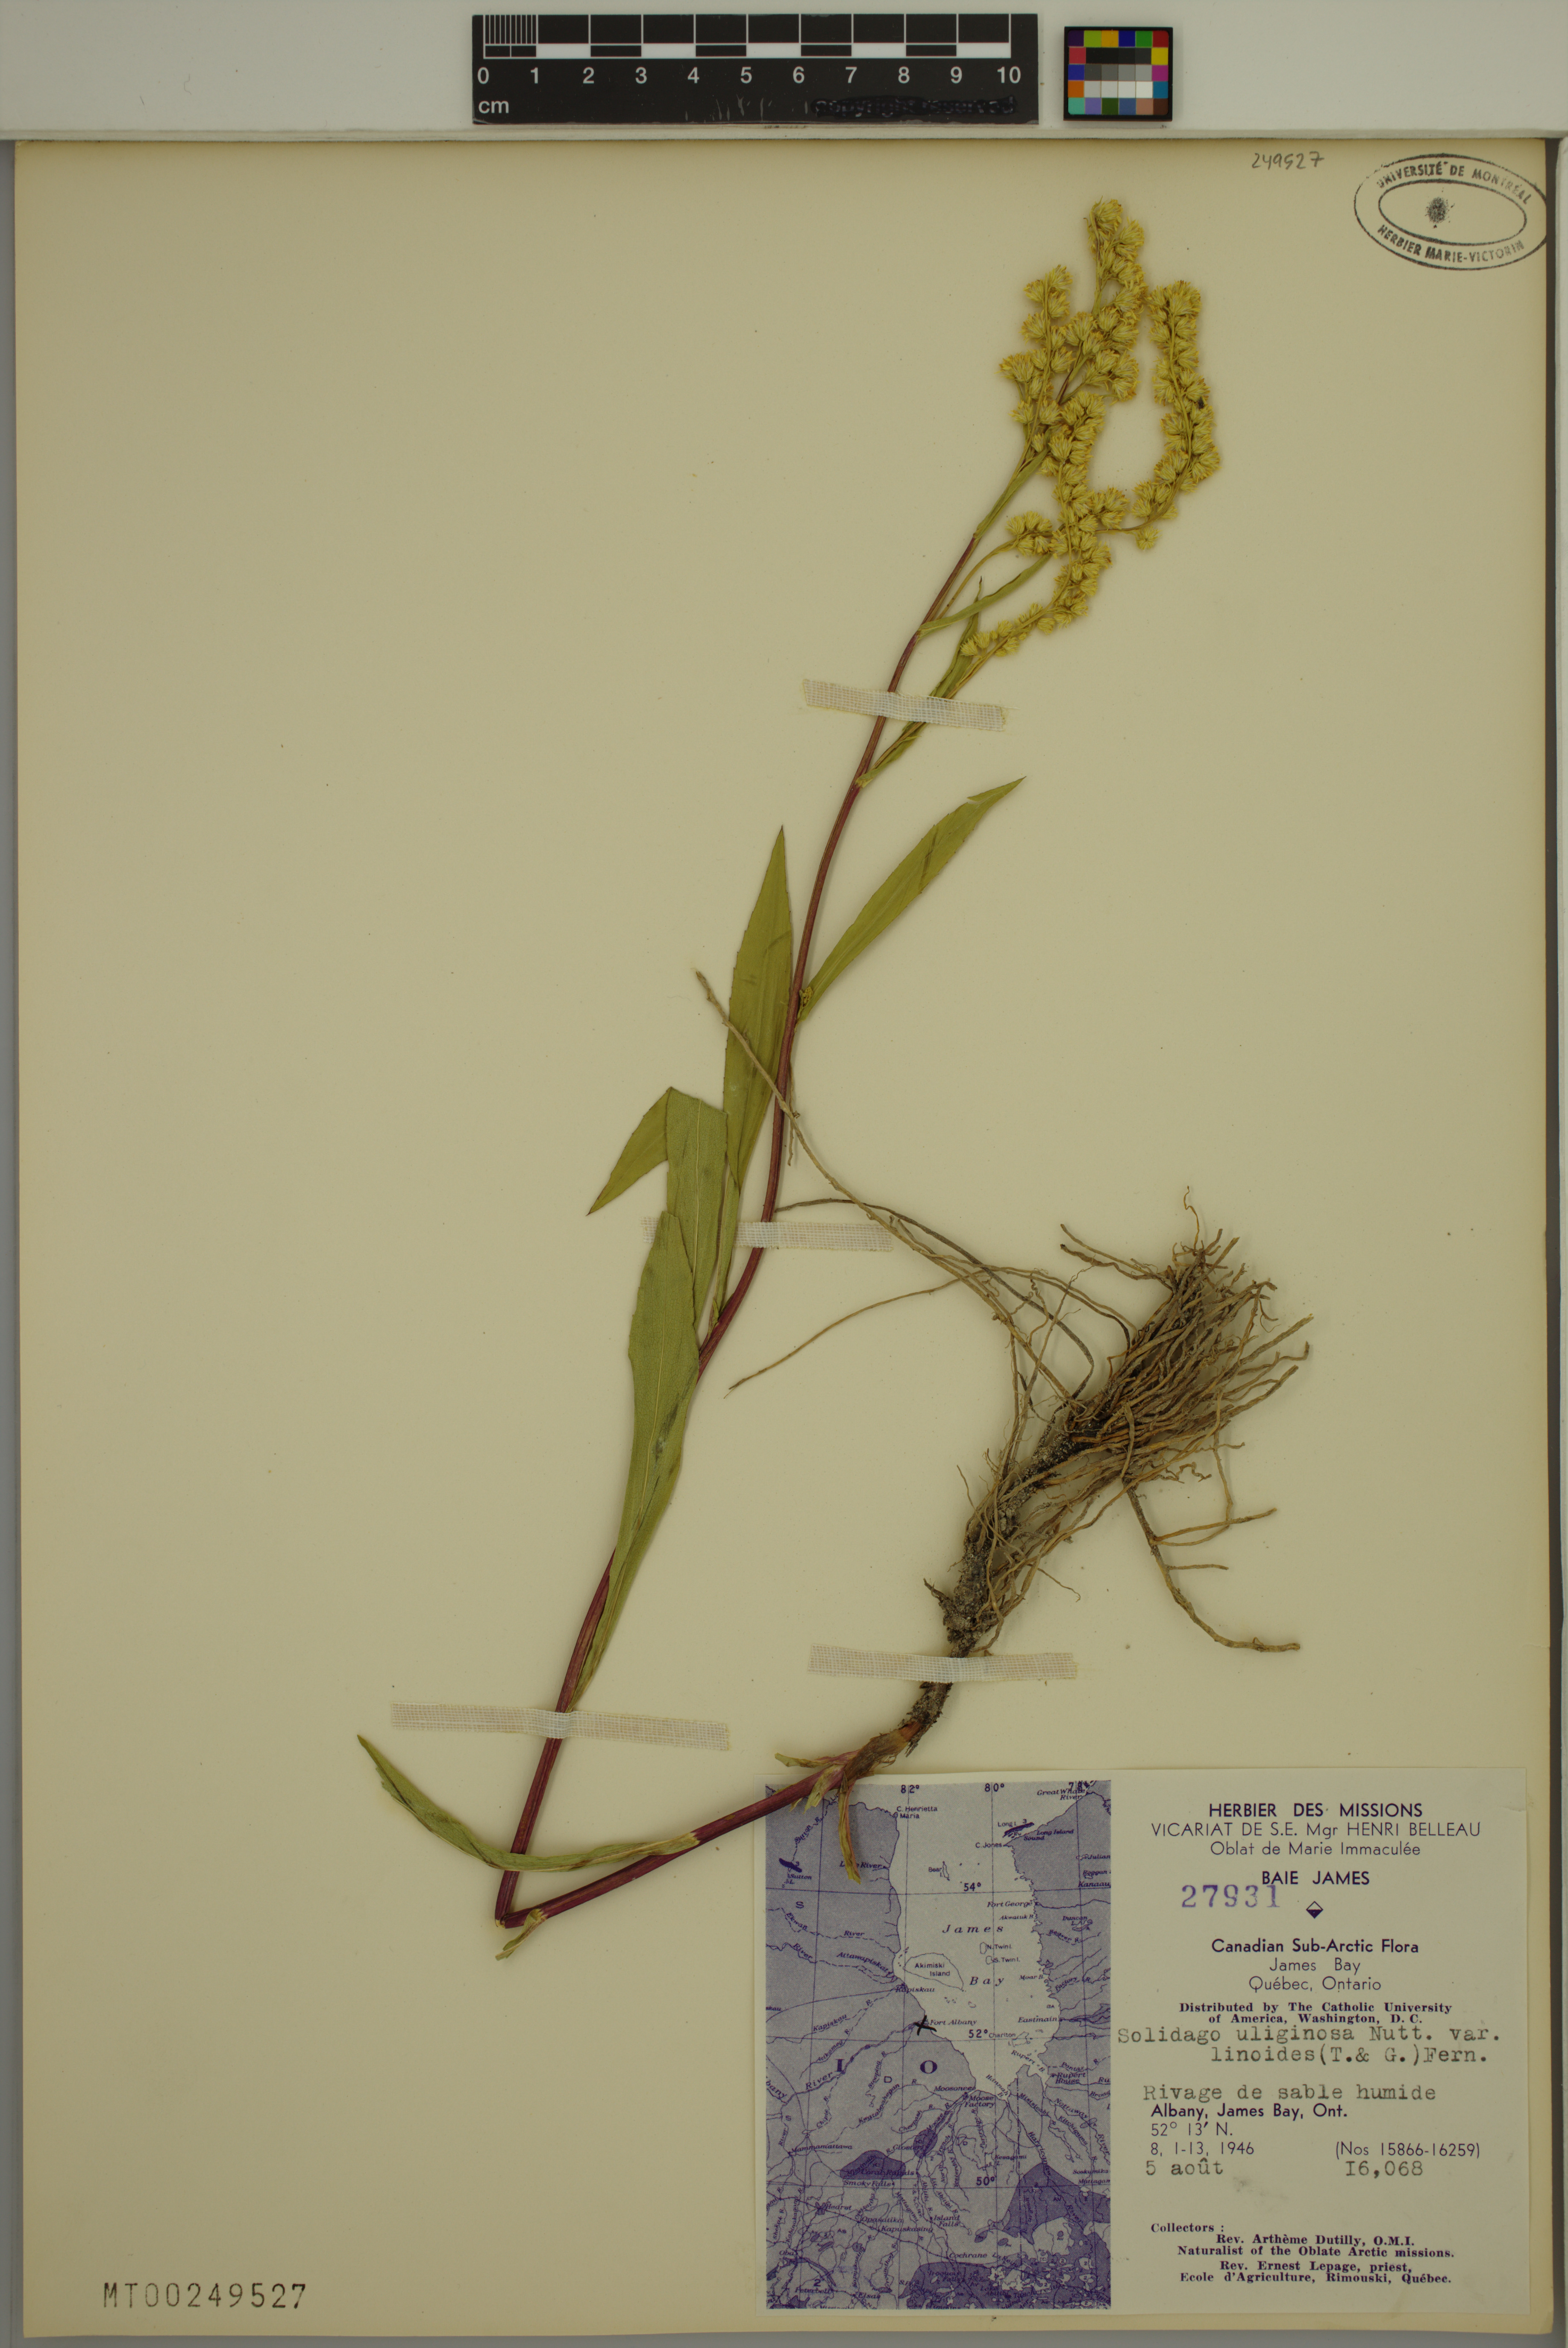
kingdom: Plantae
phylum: Tracheophyta
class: Magnoliopsida
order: Asterales
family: Asteraceae
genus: Solidago
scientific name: Solidago uliginosa
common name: Bog goldenrod
